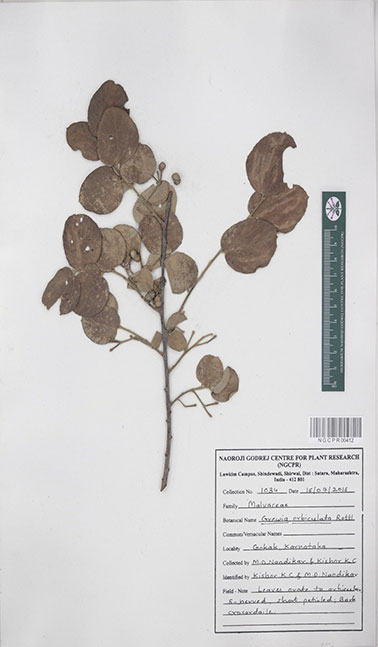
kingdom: Plantae
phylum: Tracheophyta
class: Magnoliopsida
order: Malvales
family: Malvaceae
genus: Grewia
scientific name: Grewia orbiculata
